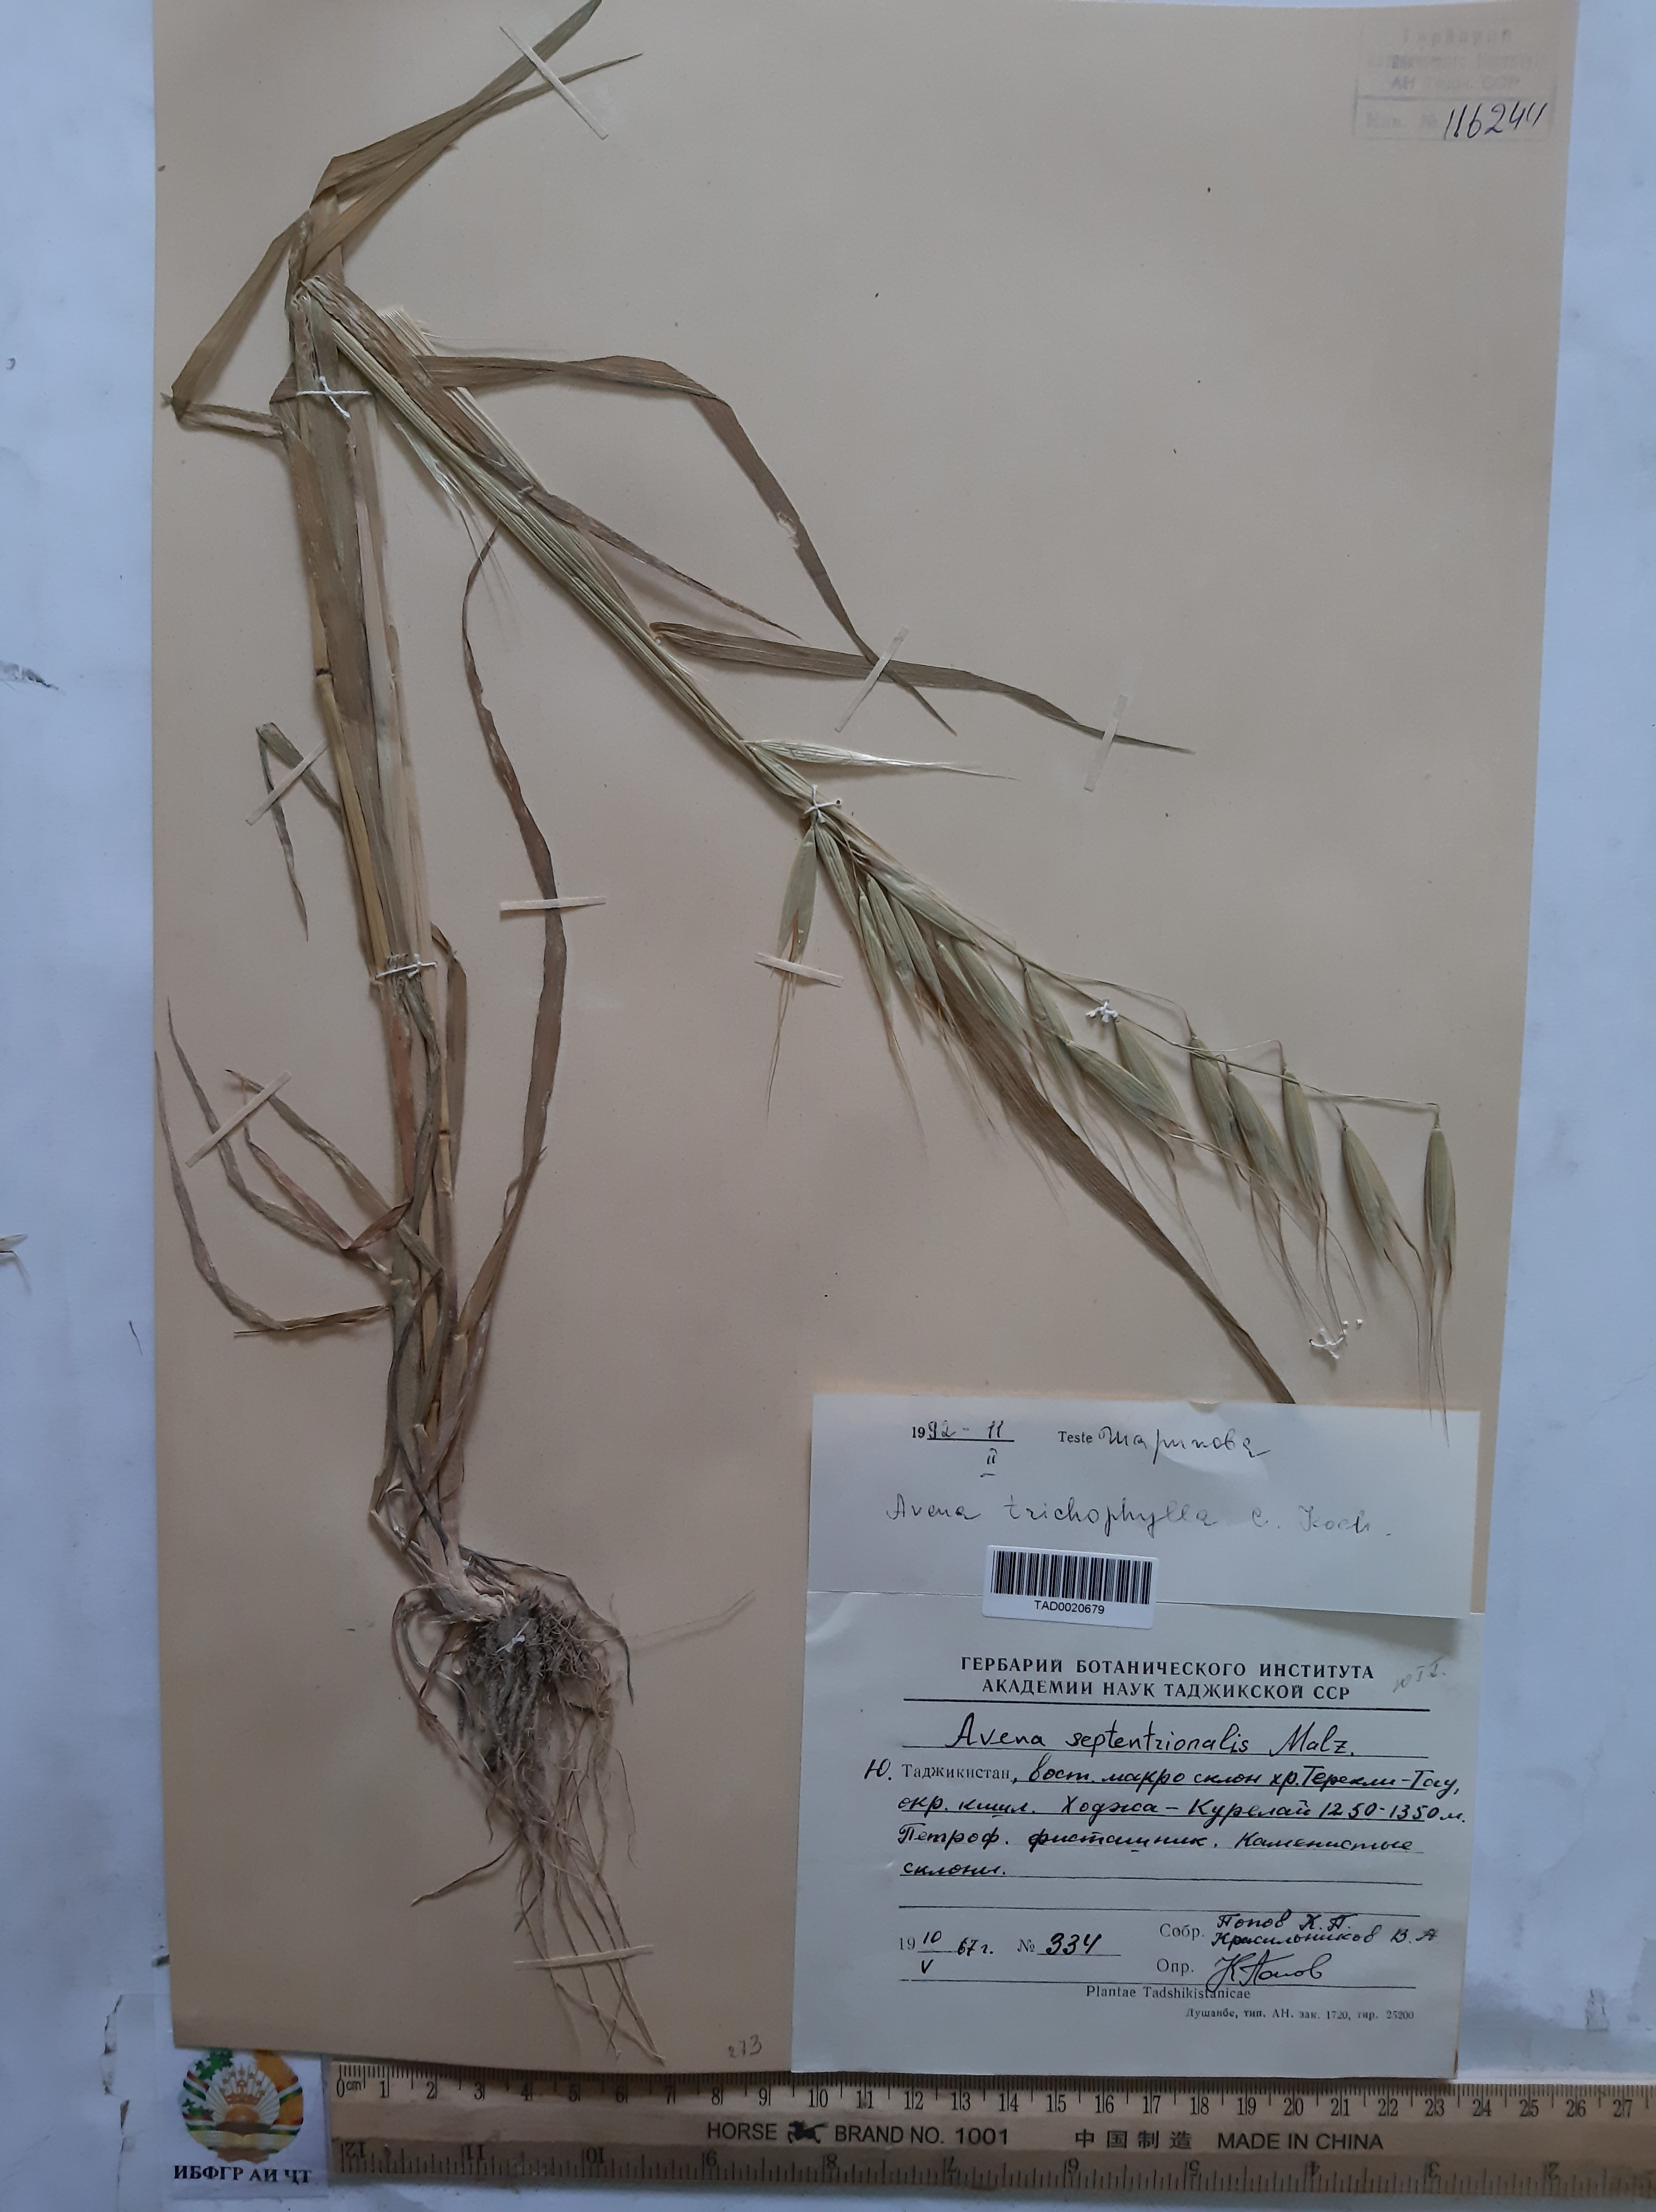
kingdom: Plantae
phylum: Tracheophyta
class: Liliopsida
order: Poales
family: Poaceae
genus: Avena
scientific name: Avena sterilis
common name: Animated oat
